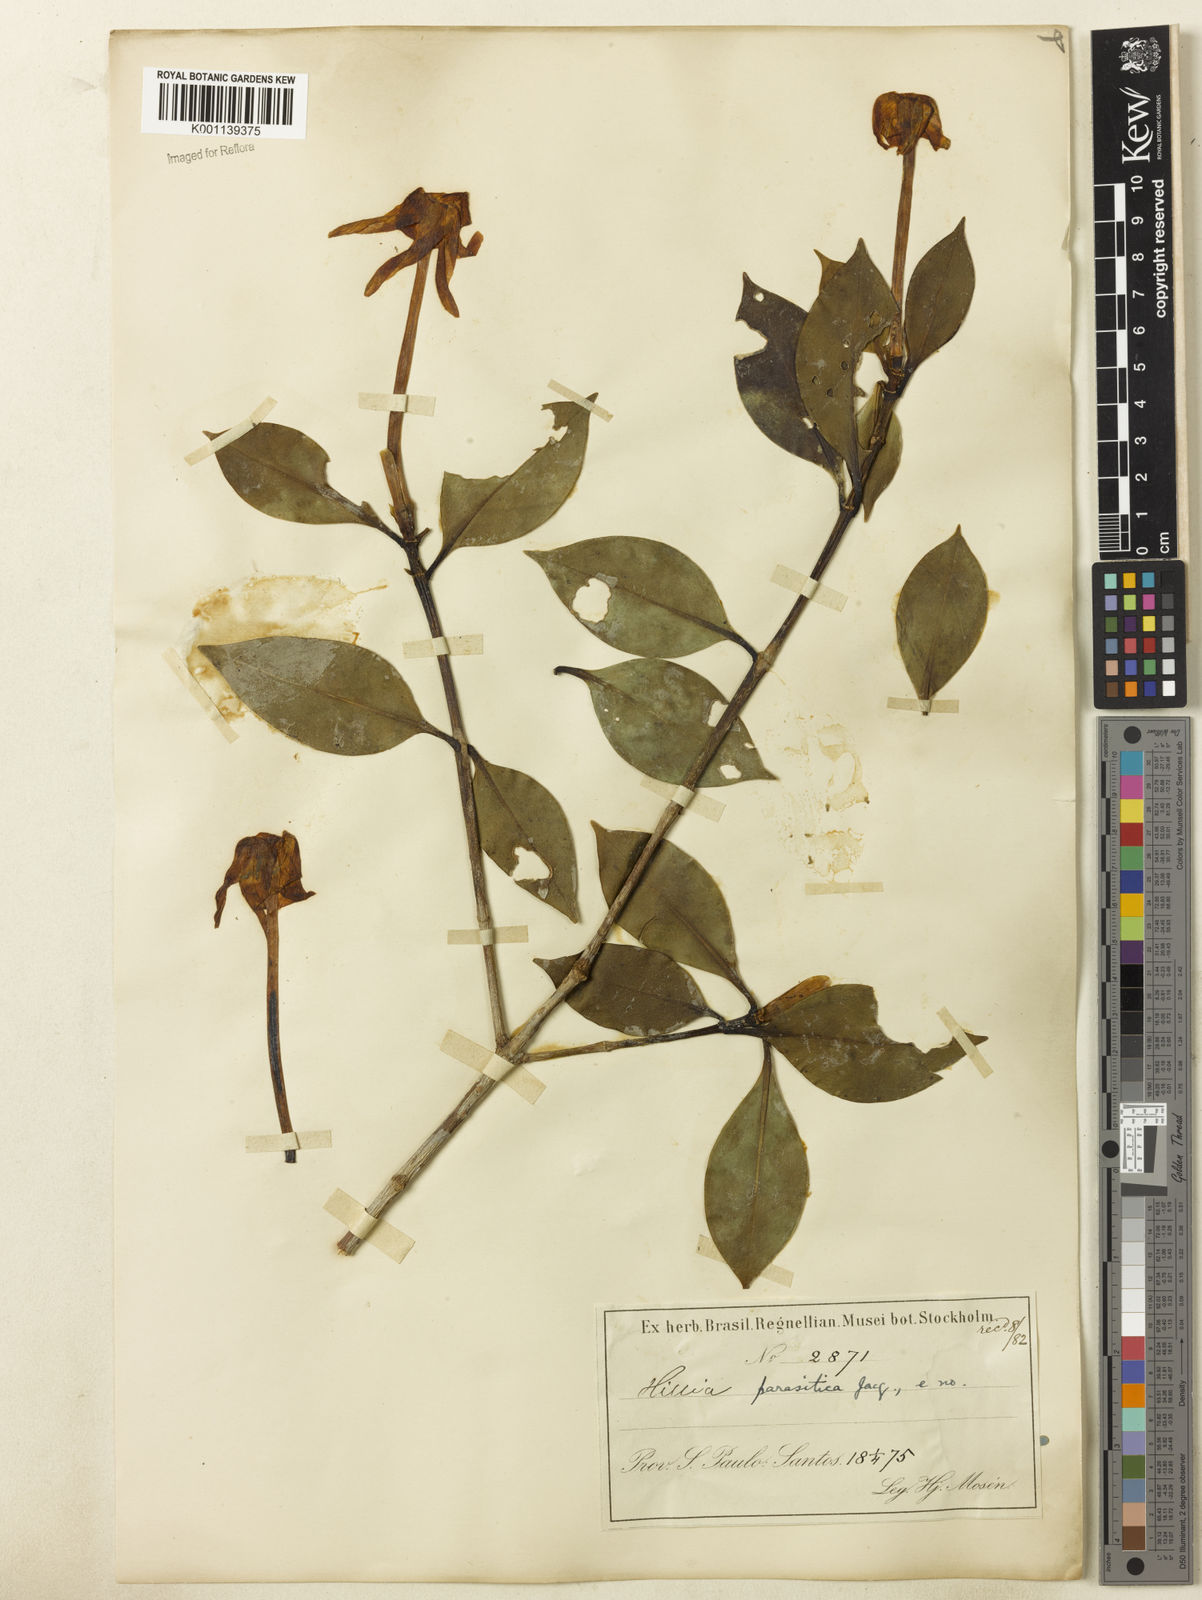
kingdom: Plantae
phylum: Tracheophyta
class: Magnoliopsida
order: Gentianales
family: Rubiaceae
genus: Hillia
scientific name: Hillia parasitica
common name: Morning star
